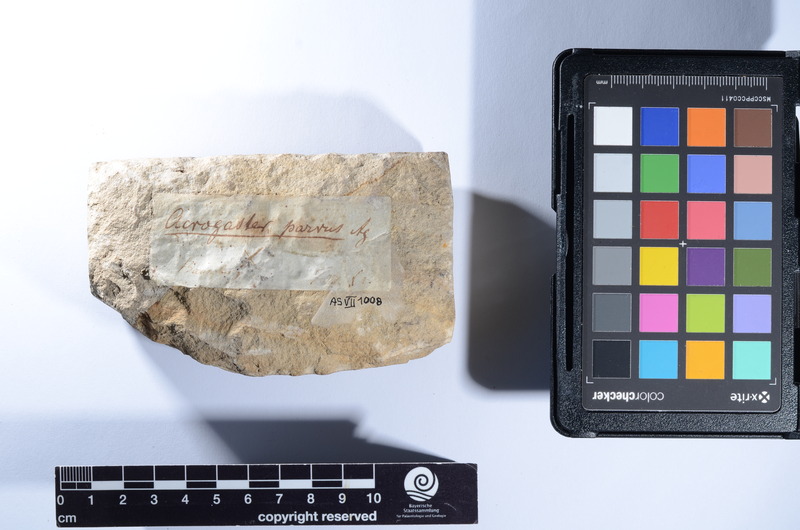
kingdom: Animalia
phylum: Chordata
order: Beryciformes
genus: Acrogaster
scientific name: Acrogaster parvus
